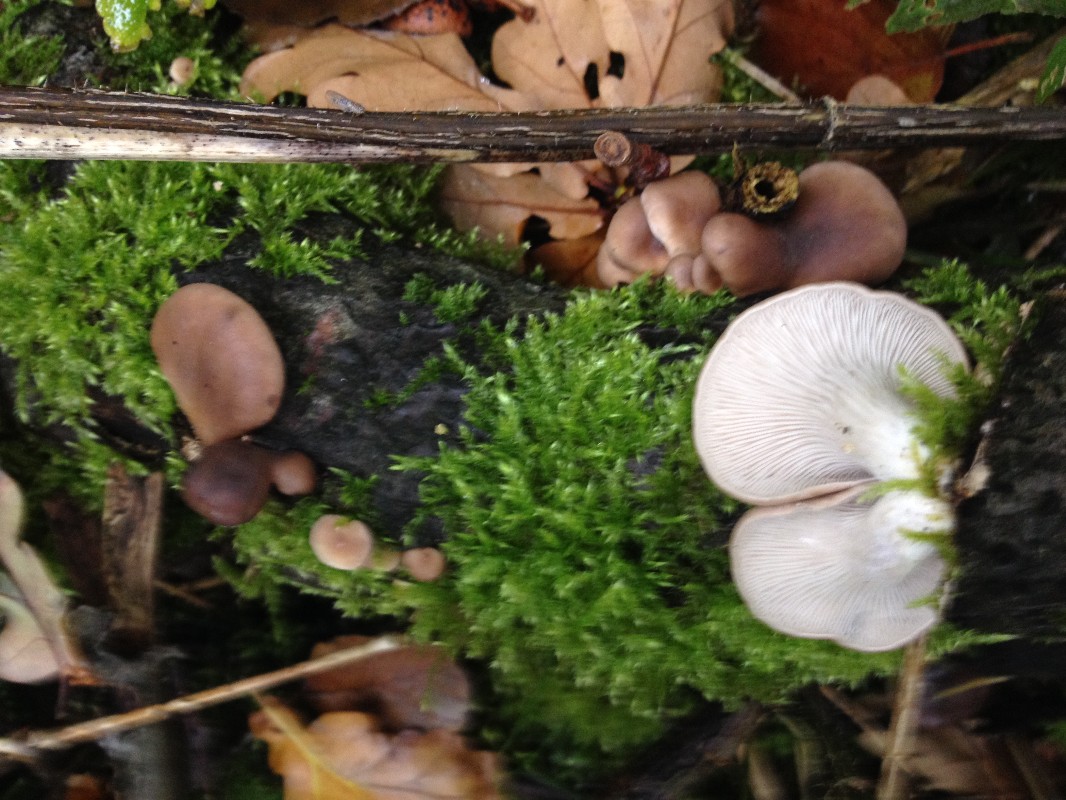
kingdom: Fungi
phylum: Basidiomycota
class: Agaricomycetes
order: Agaricales
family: Pleurotaceae
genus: Pleurotus
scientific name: Pleurotus ostreatus
